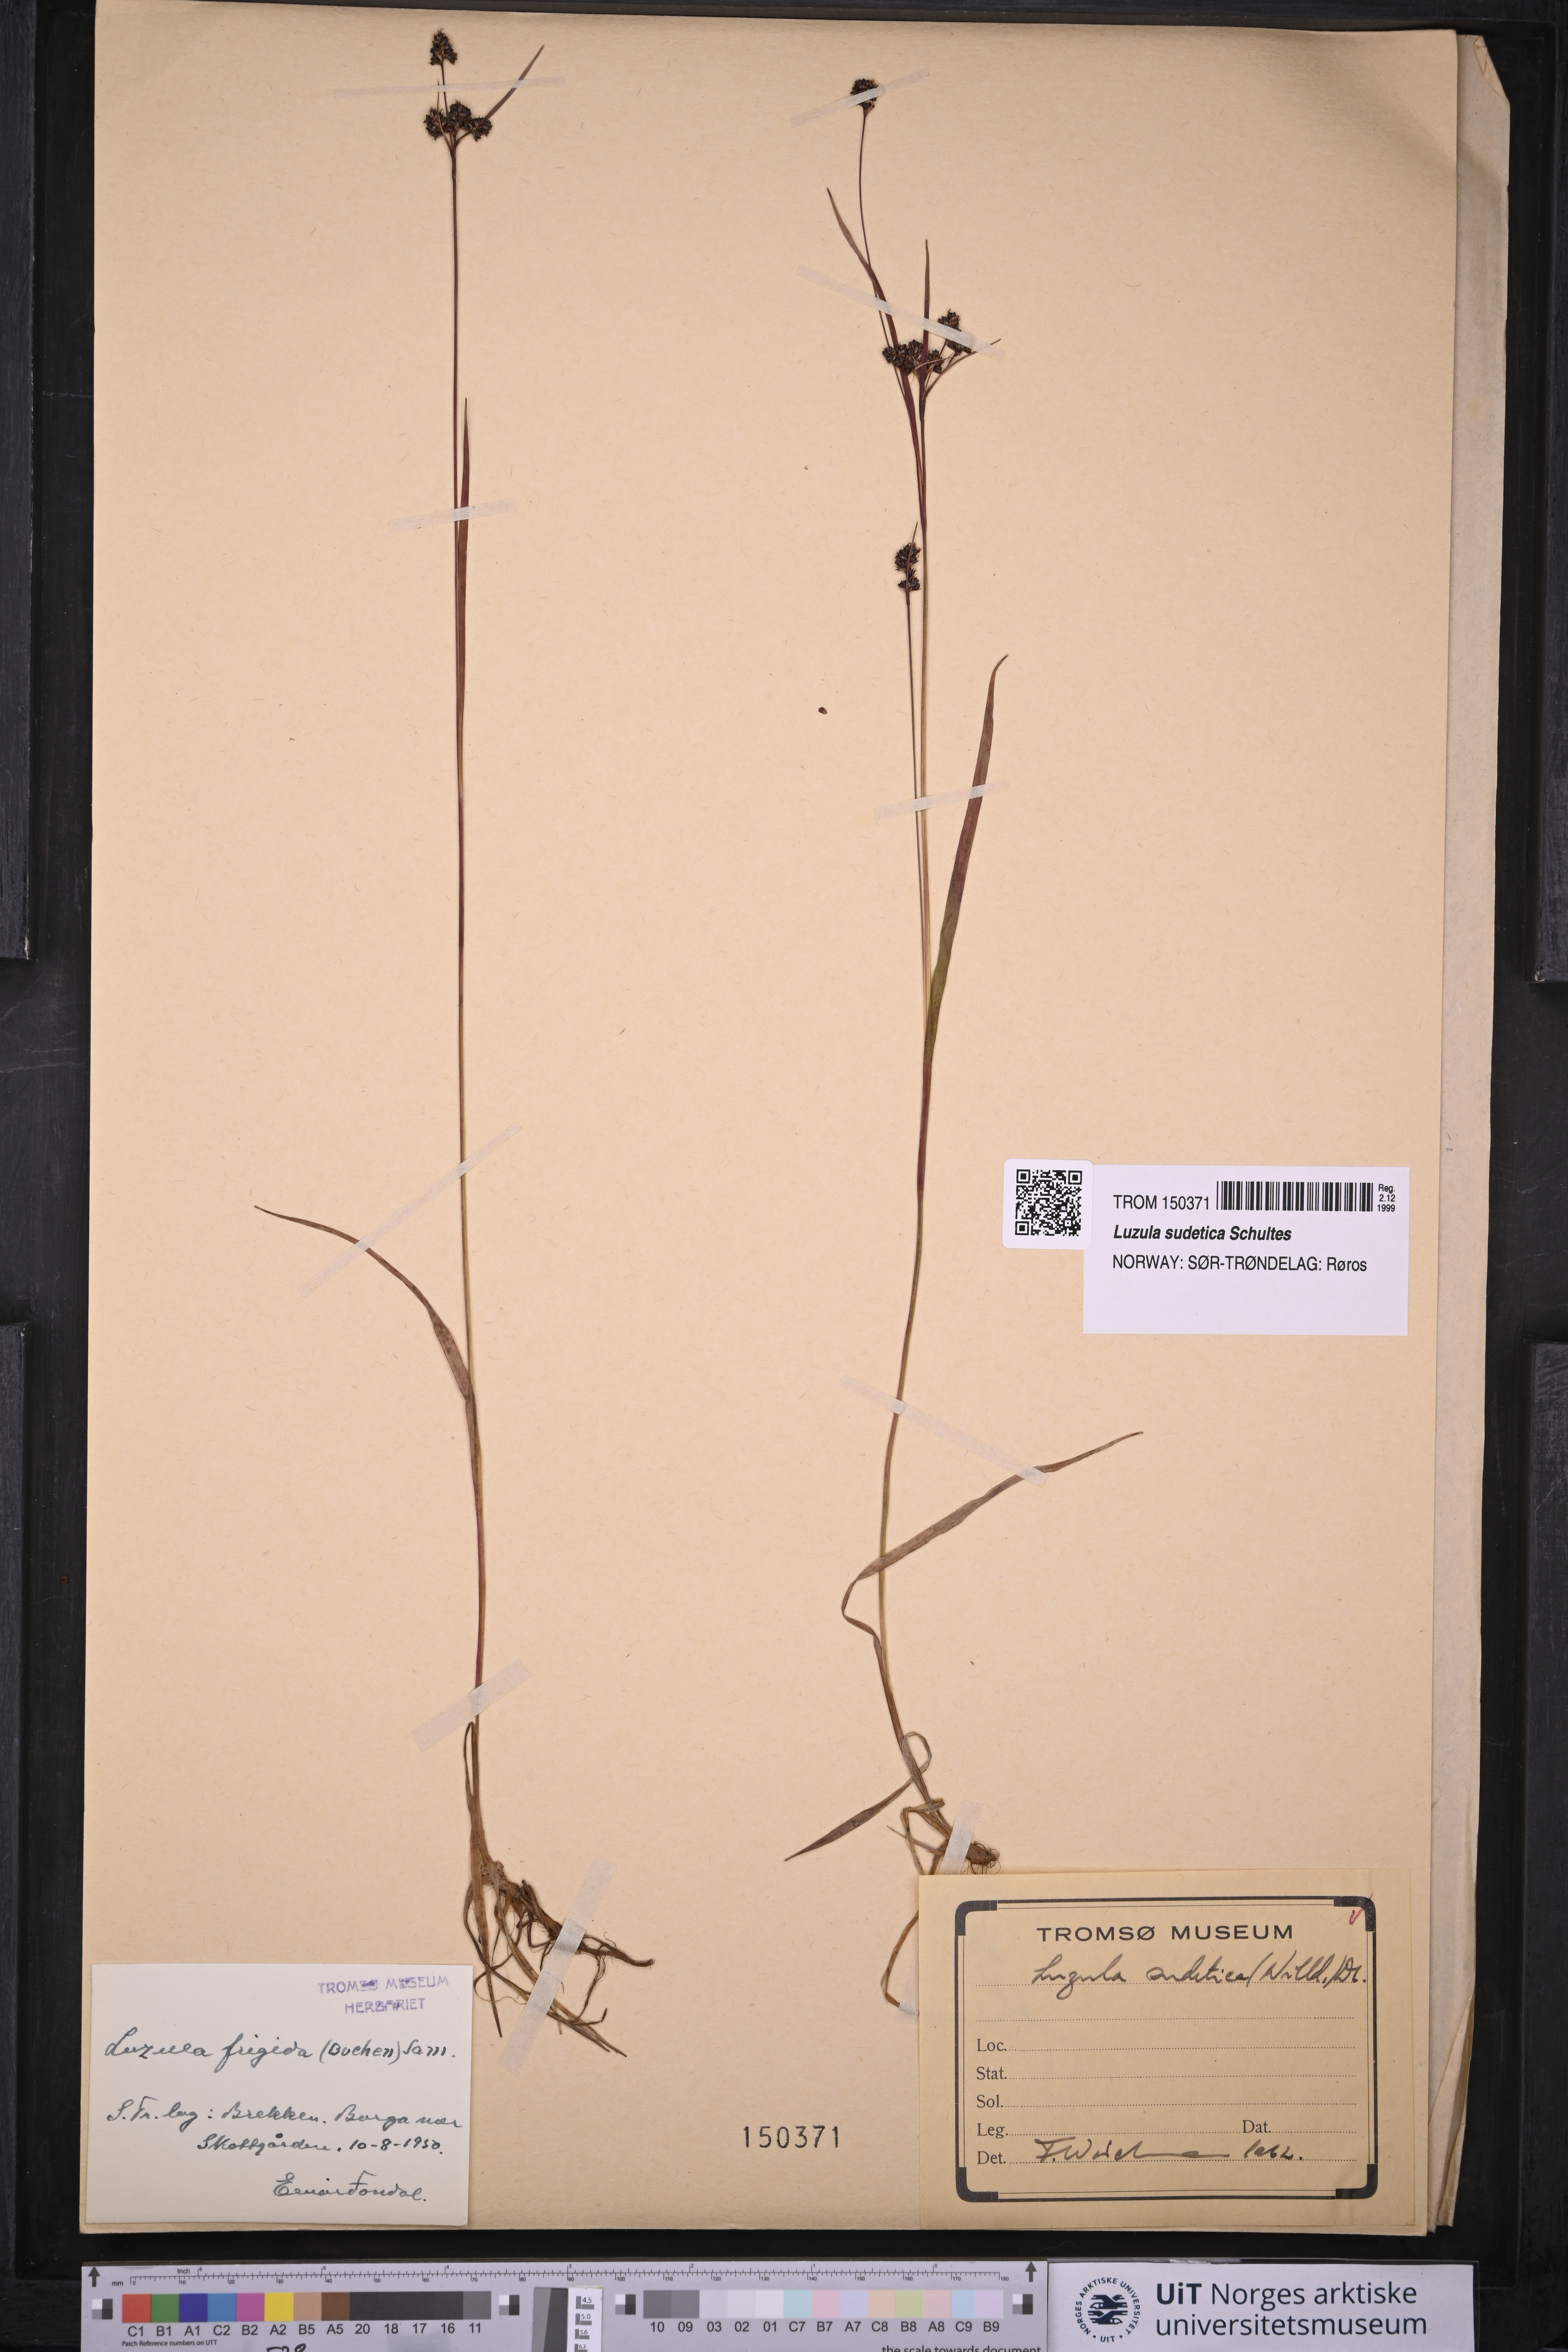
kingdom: Plantae
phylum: Tracheophyta
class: Liliopsida
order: Poales
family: Juncaceae
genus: Luzula
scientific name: Luzula sudetica
